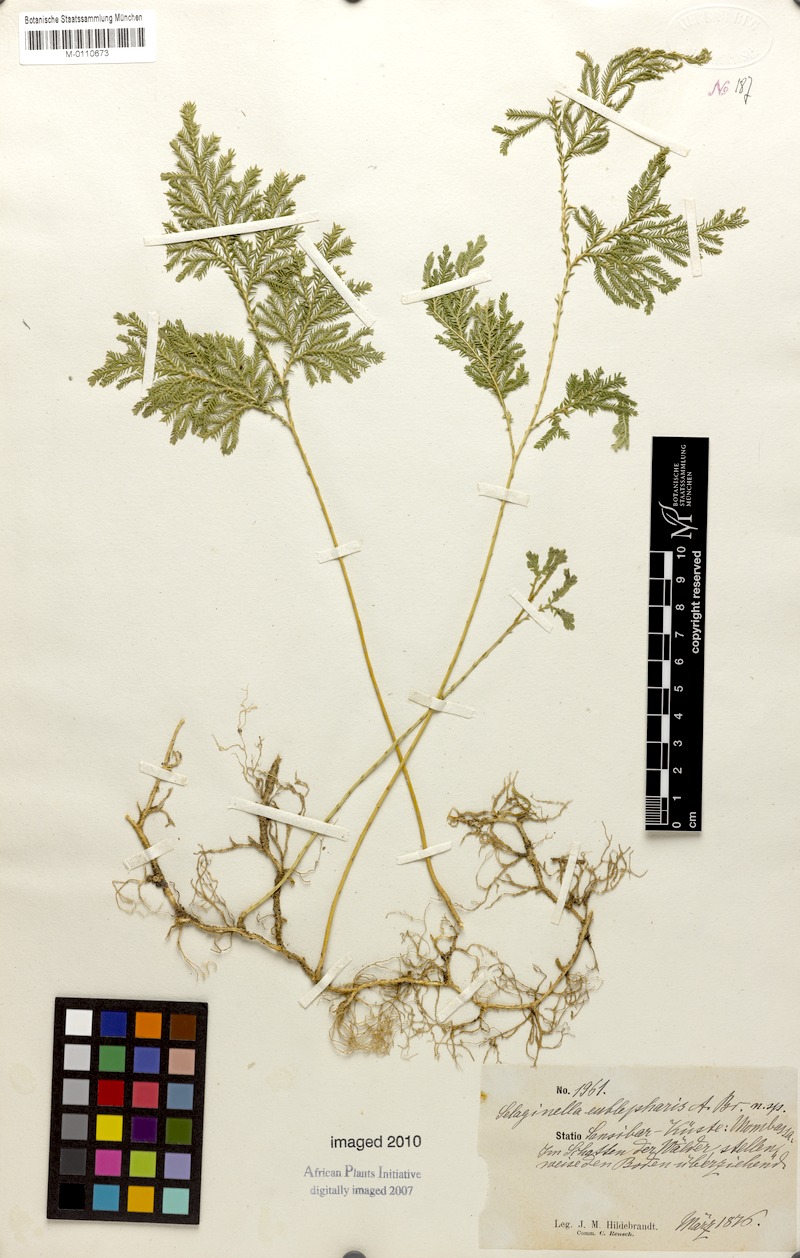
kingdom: Plantae
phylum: Tracheophyta
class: Lycopodiopsida
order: Selaginellales
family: Selaginellaceae
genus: Selaginella
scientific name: Selaginella eublepharis
